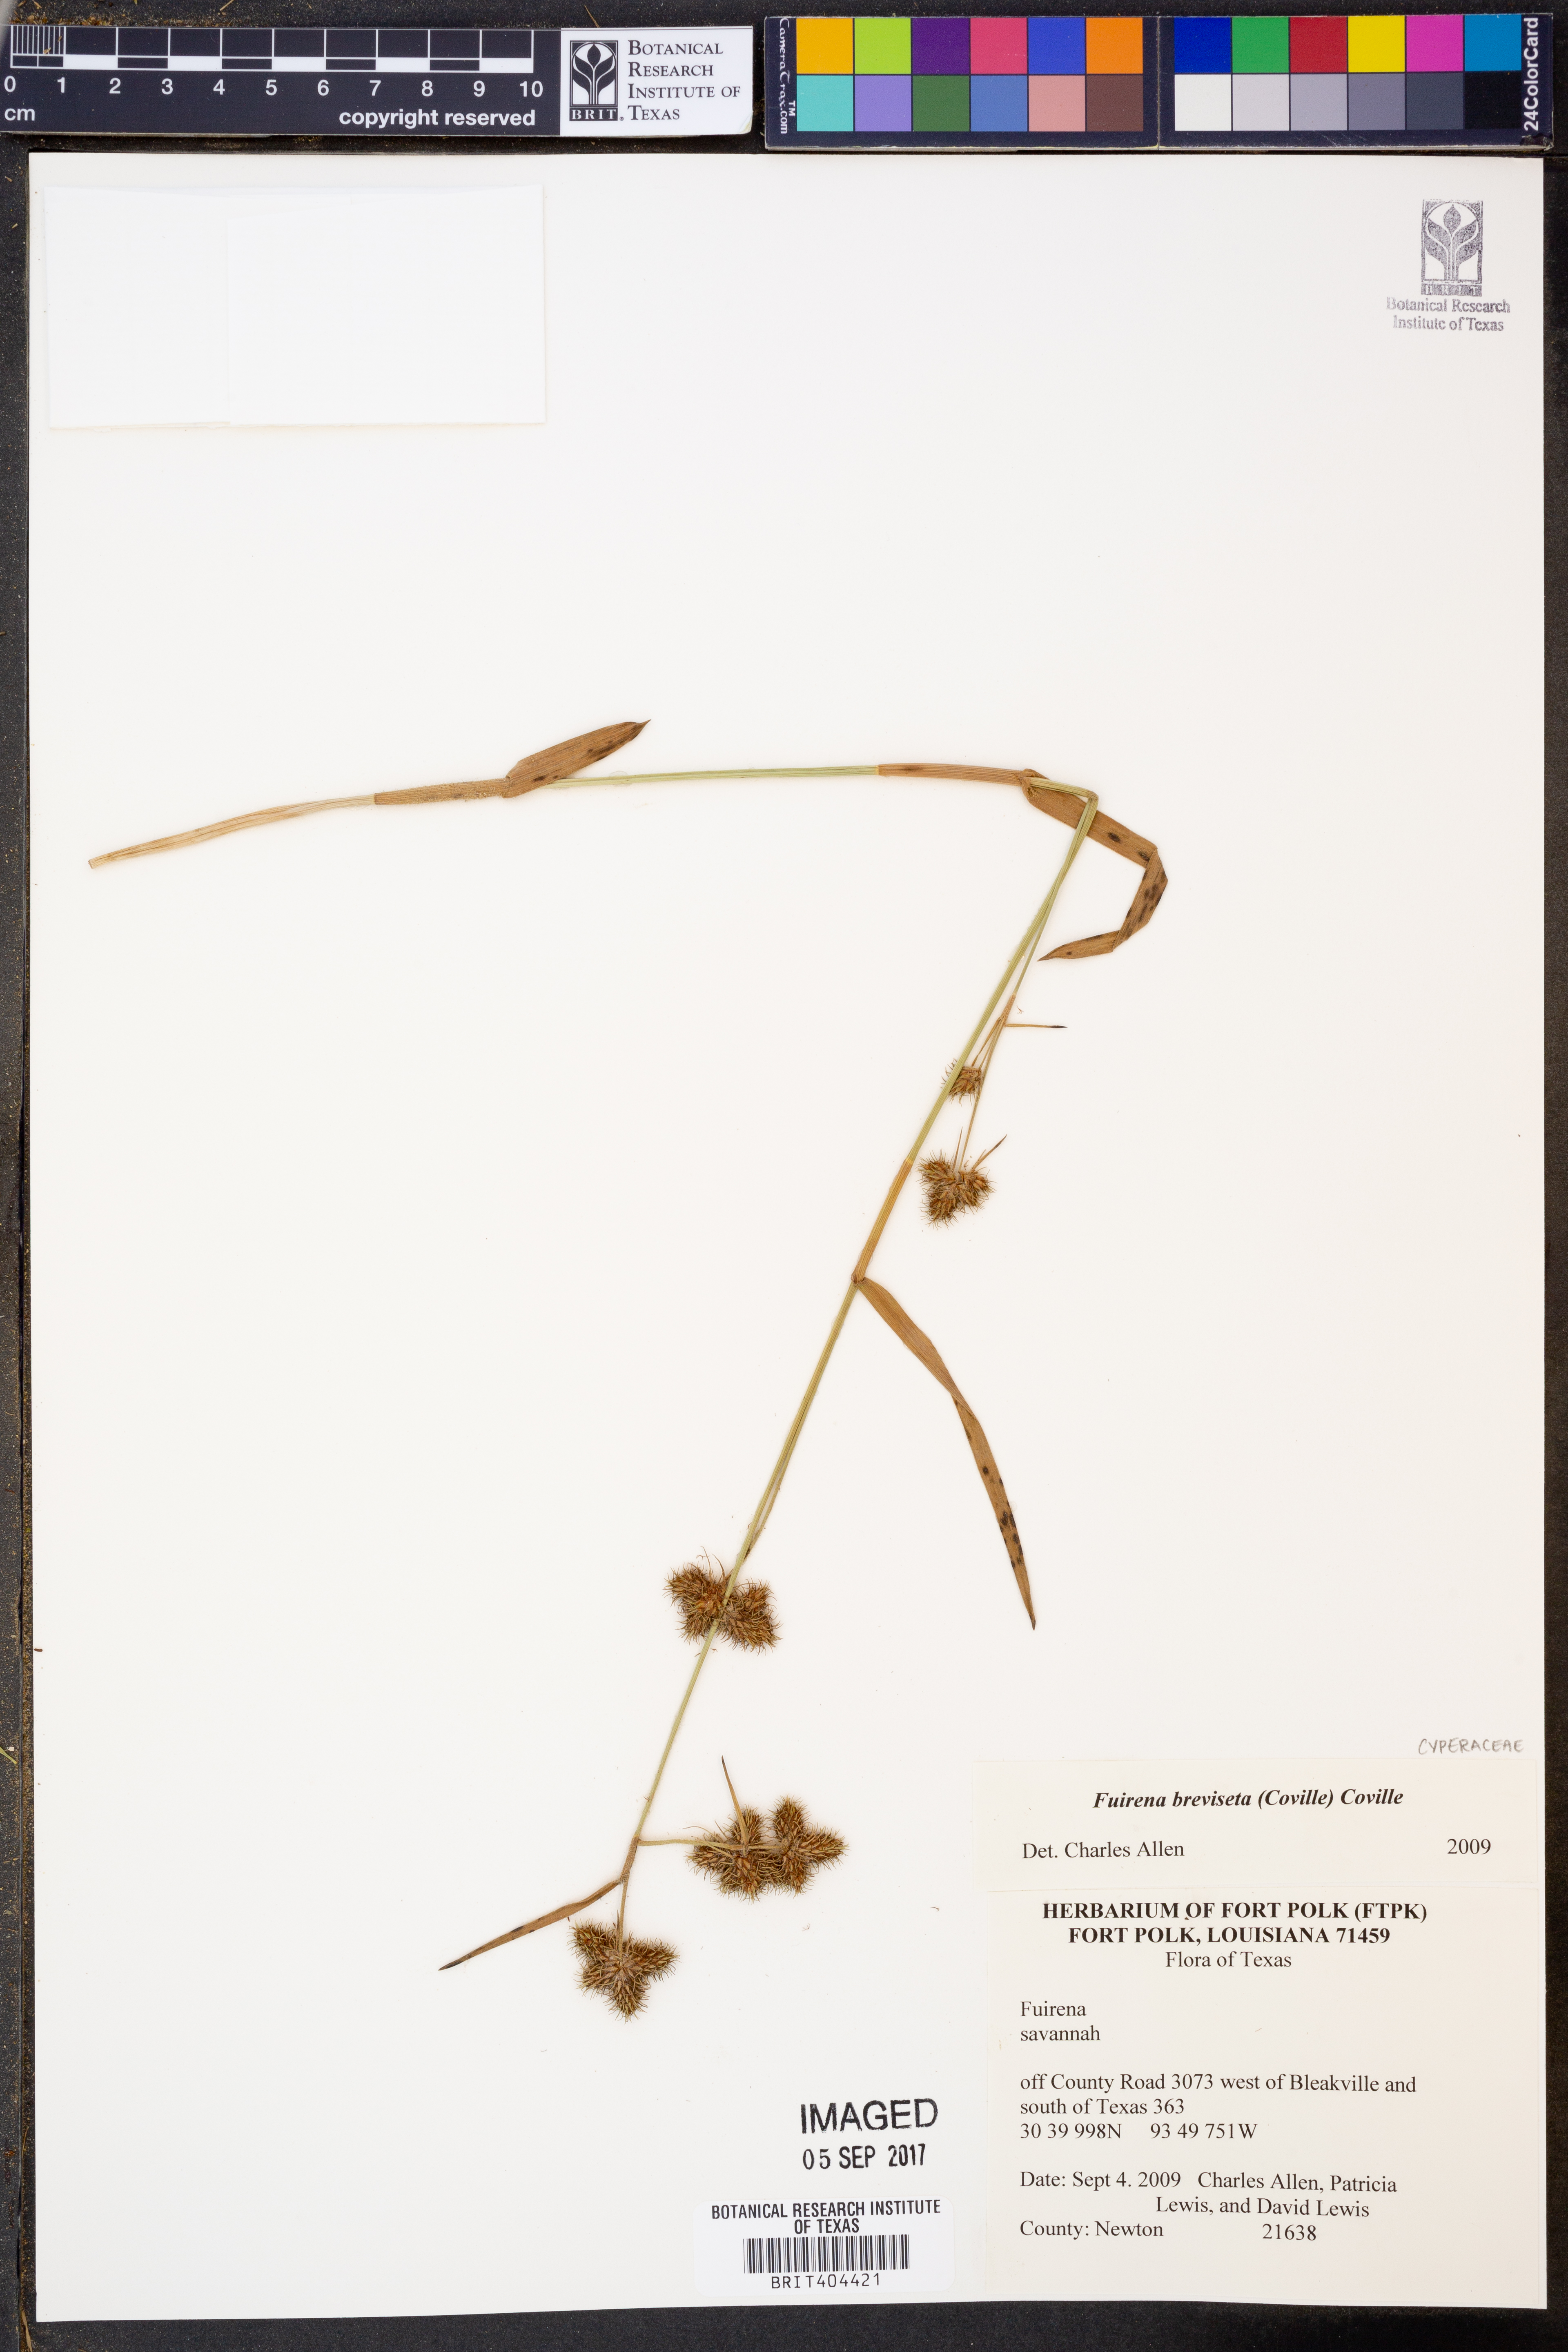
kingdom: Plantae
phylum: Tracheophyta
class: Liliopsida
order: Poales
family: Cyperaceae
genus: Fuirena
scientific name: Fuirena breviseta
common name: Saltmarsh umbrella sedge
